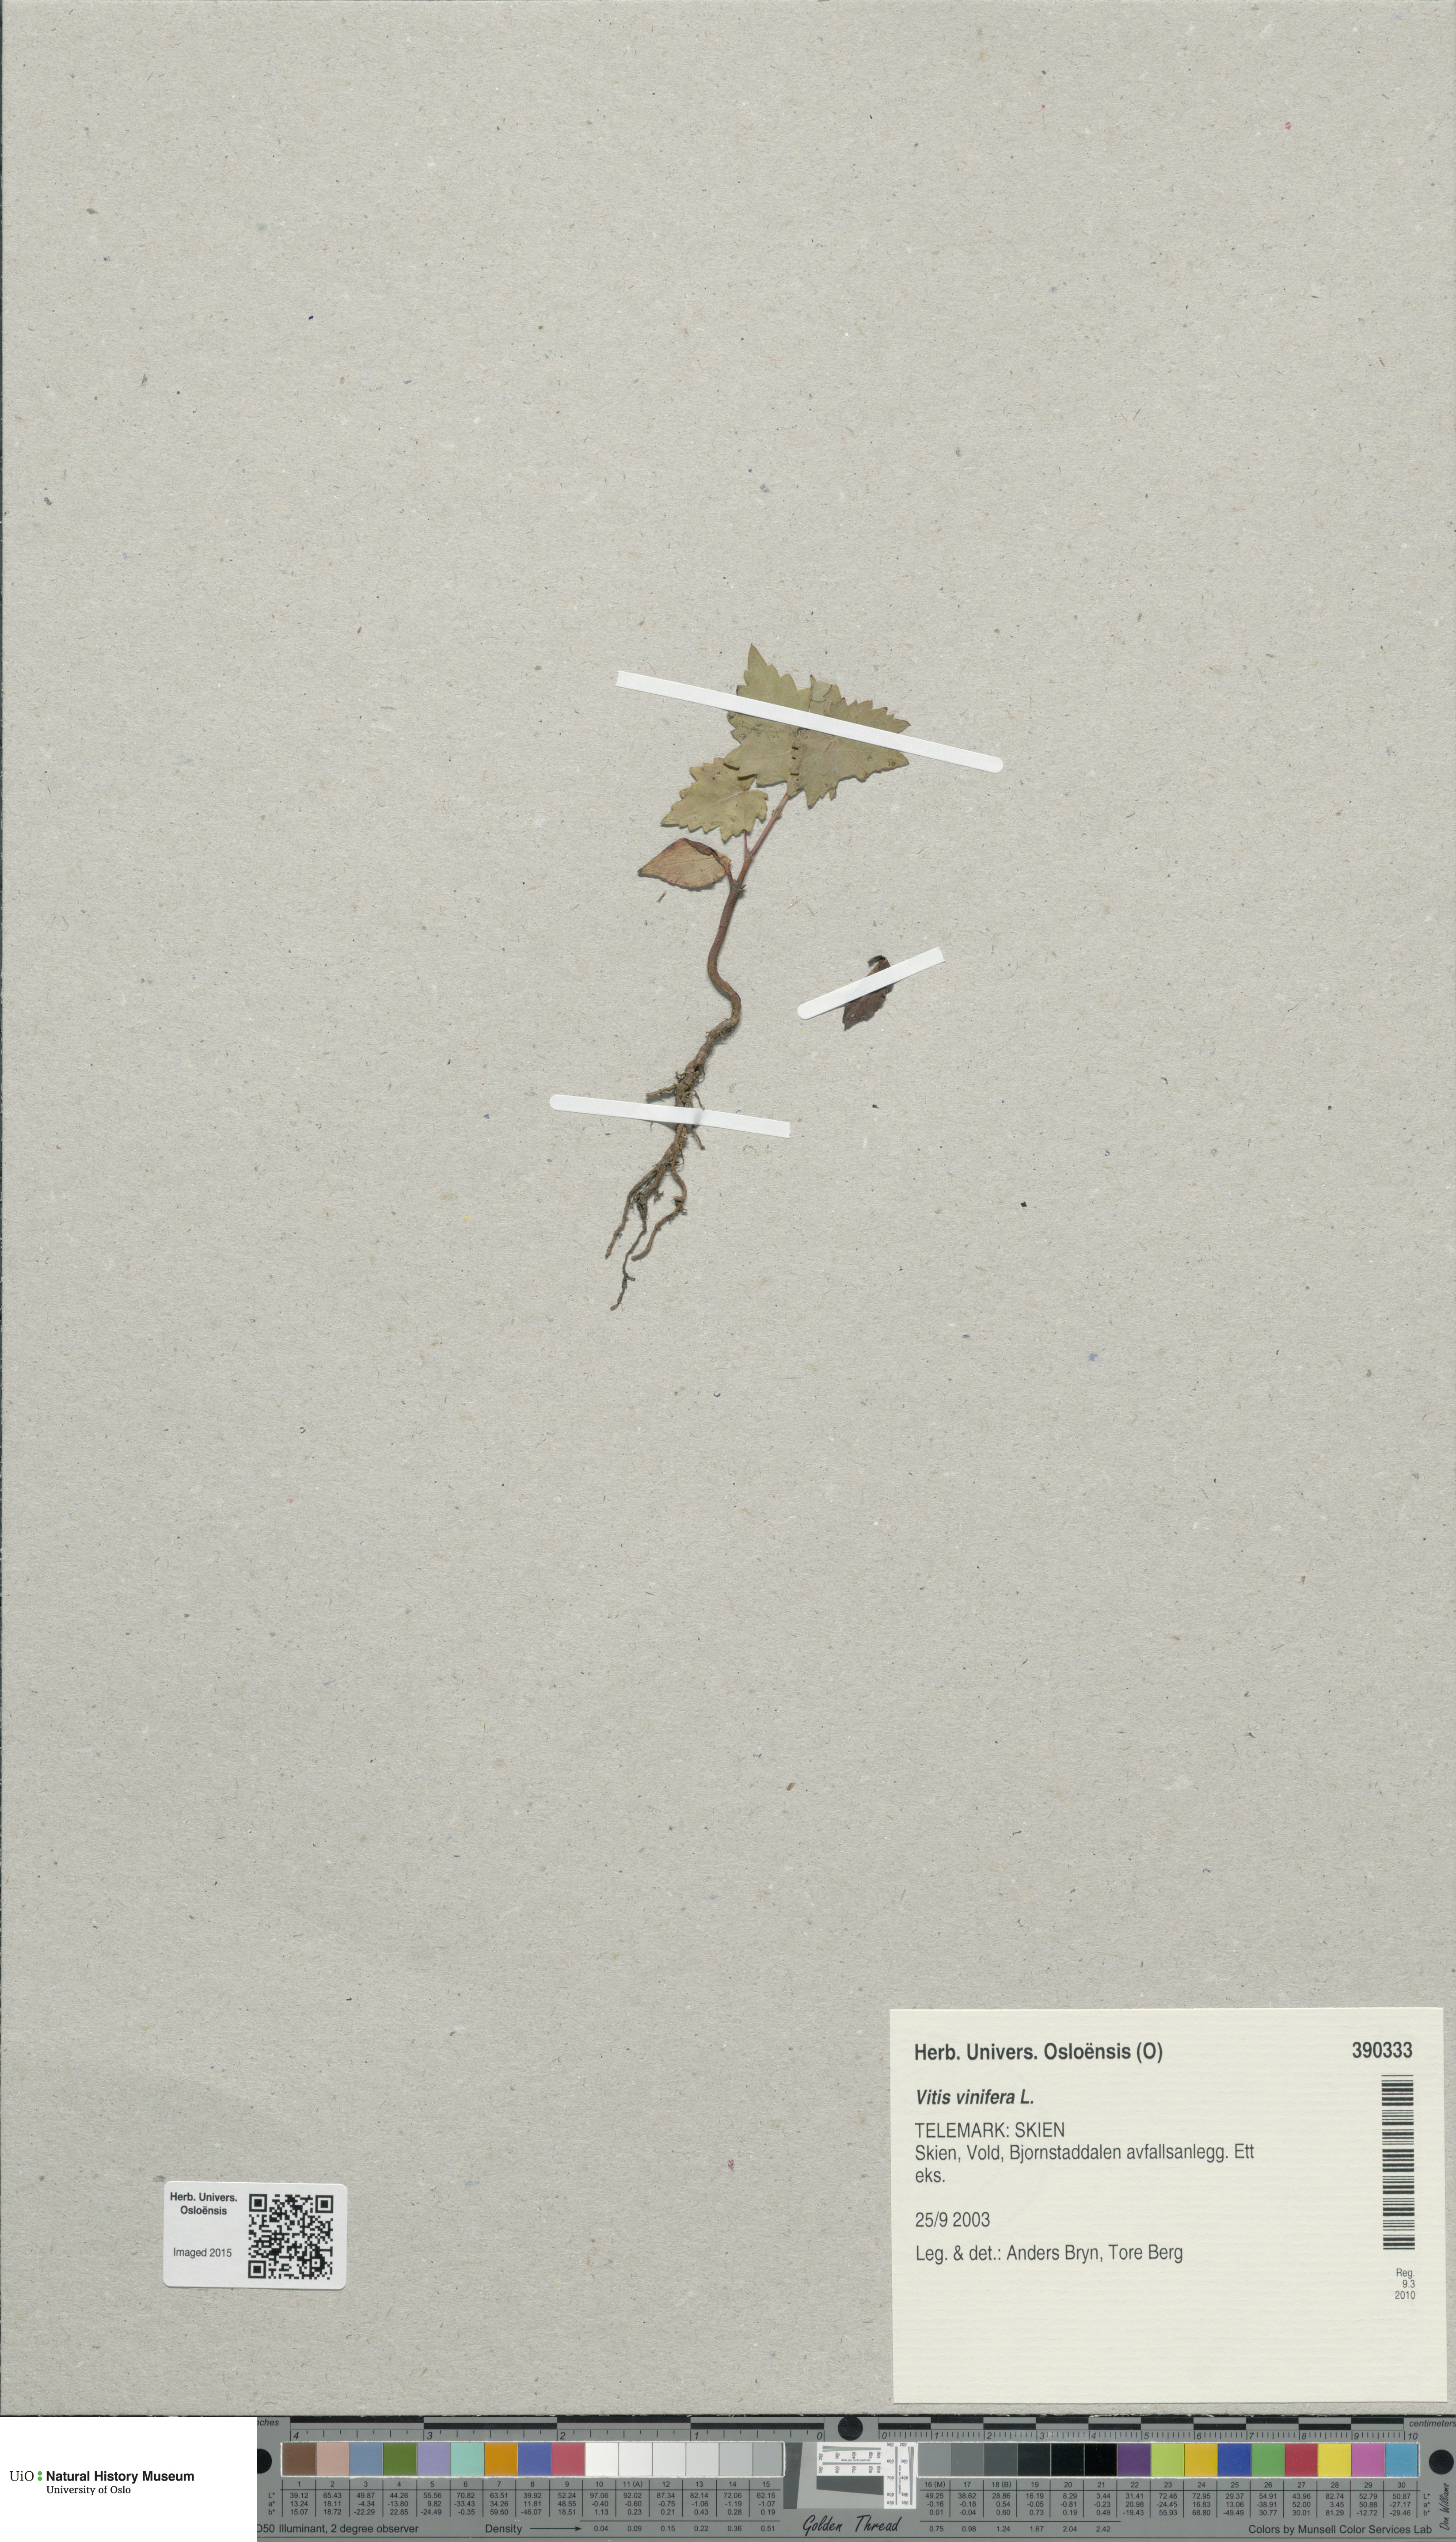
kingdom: Plantae
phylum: Tracheophyta
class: Magnoliopsida
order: Vitales
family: Vitaceae
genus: Vitis
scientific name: Vitis vinifera
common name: Grape-vine
